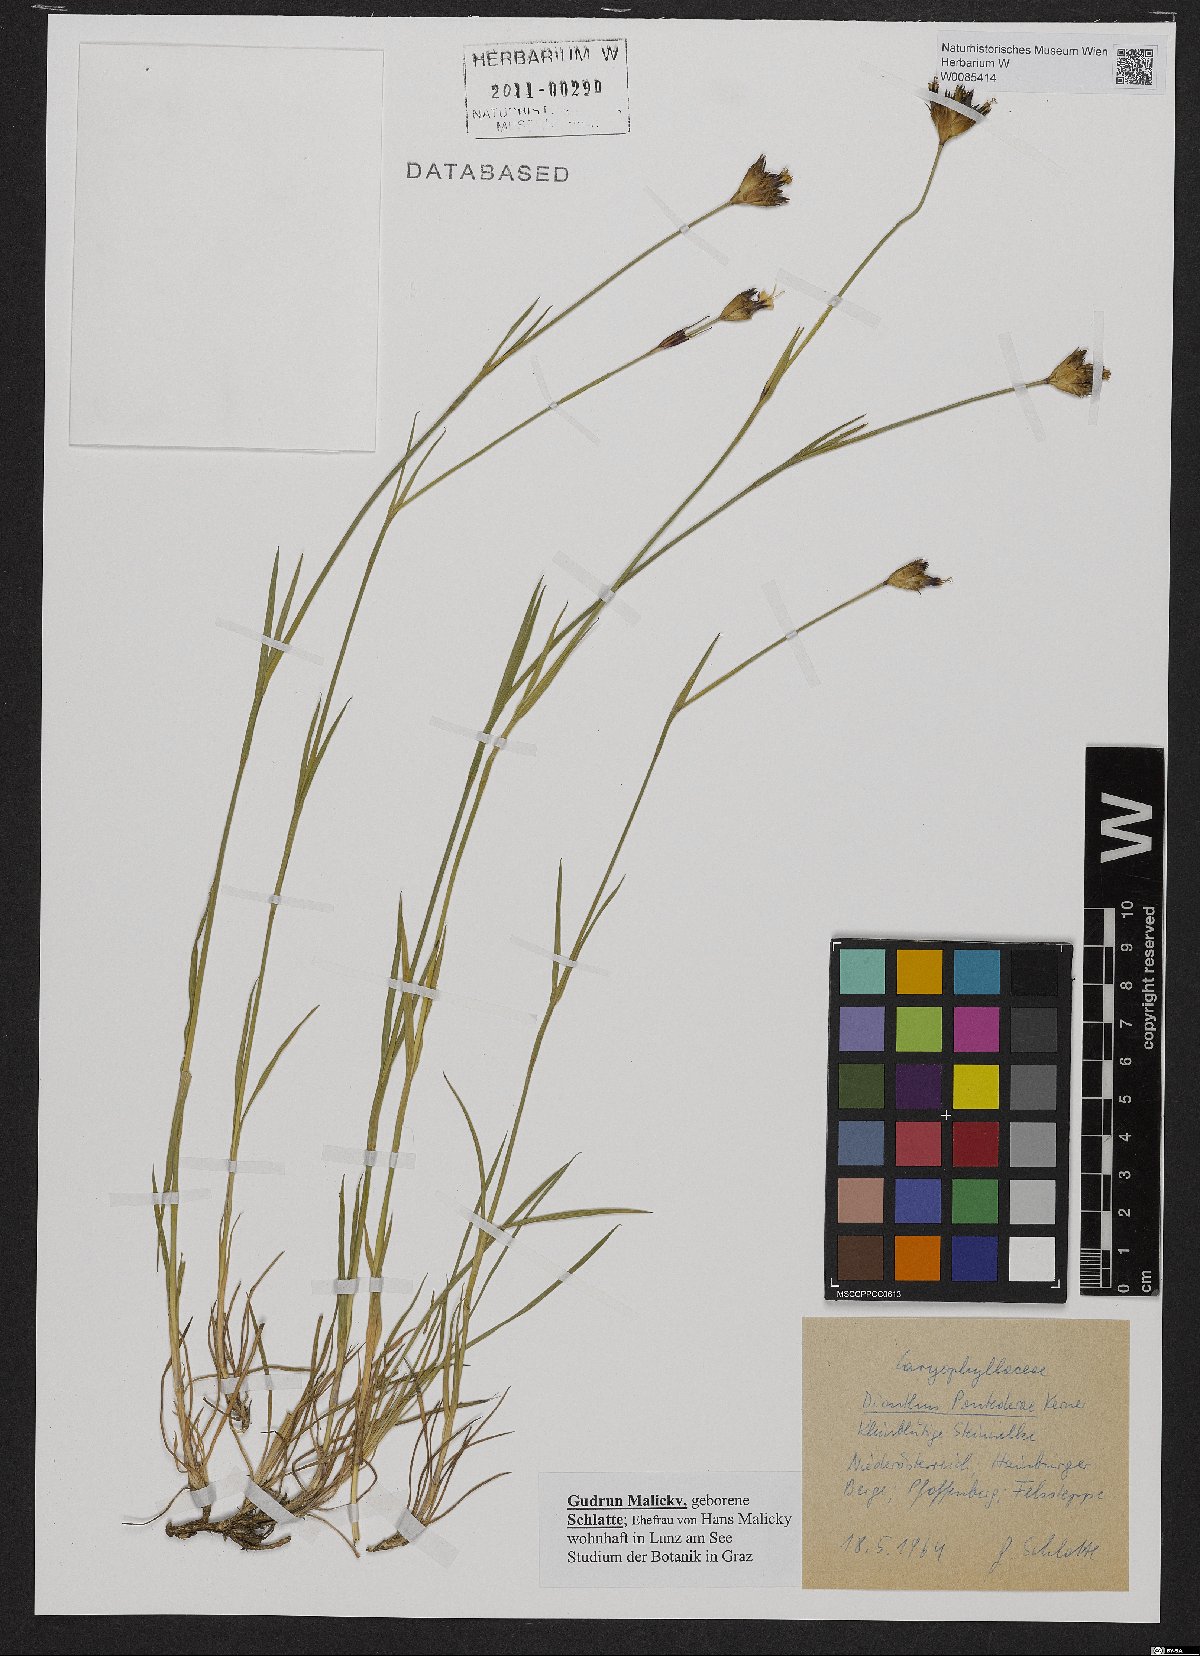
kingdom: Plantae
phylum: Tracheophyta
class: Magnoliopsida
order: Caryophyllales
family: Caryophyllaceae
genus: Dianthus
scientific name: Dianthus pontederae
